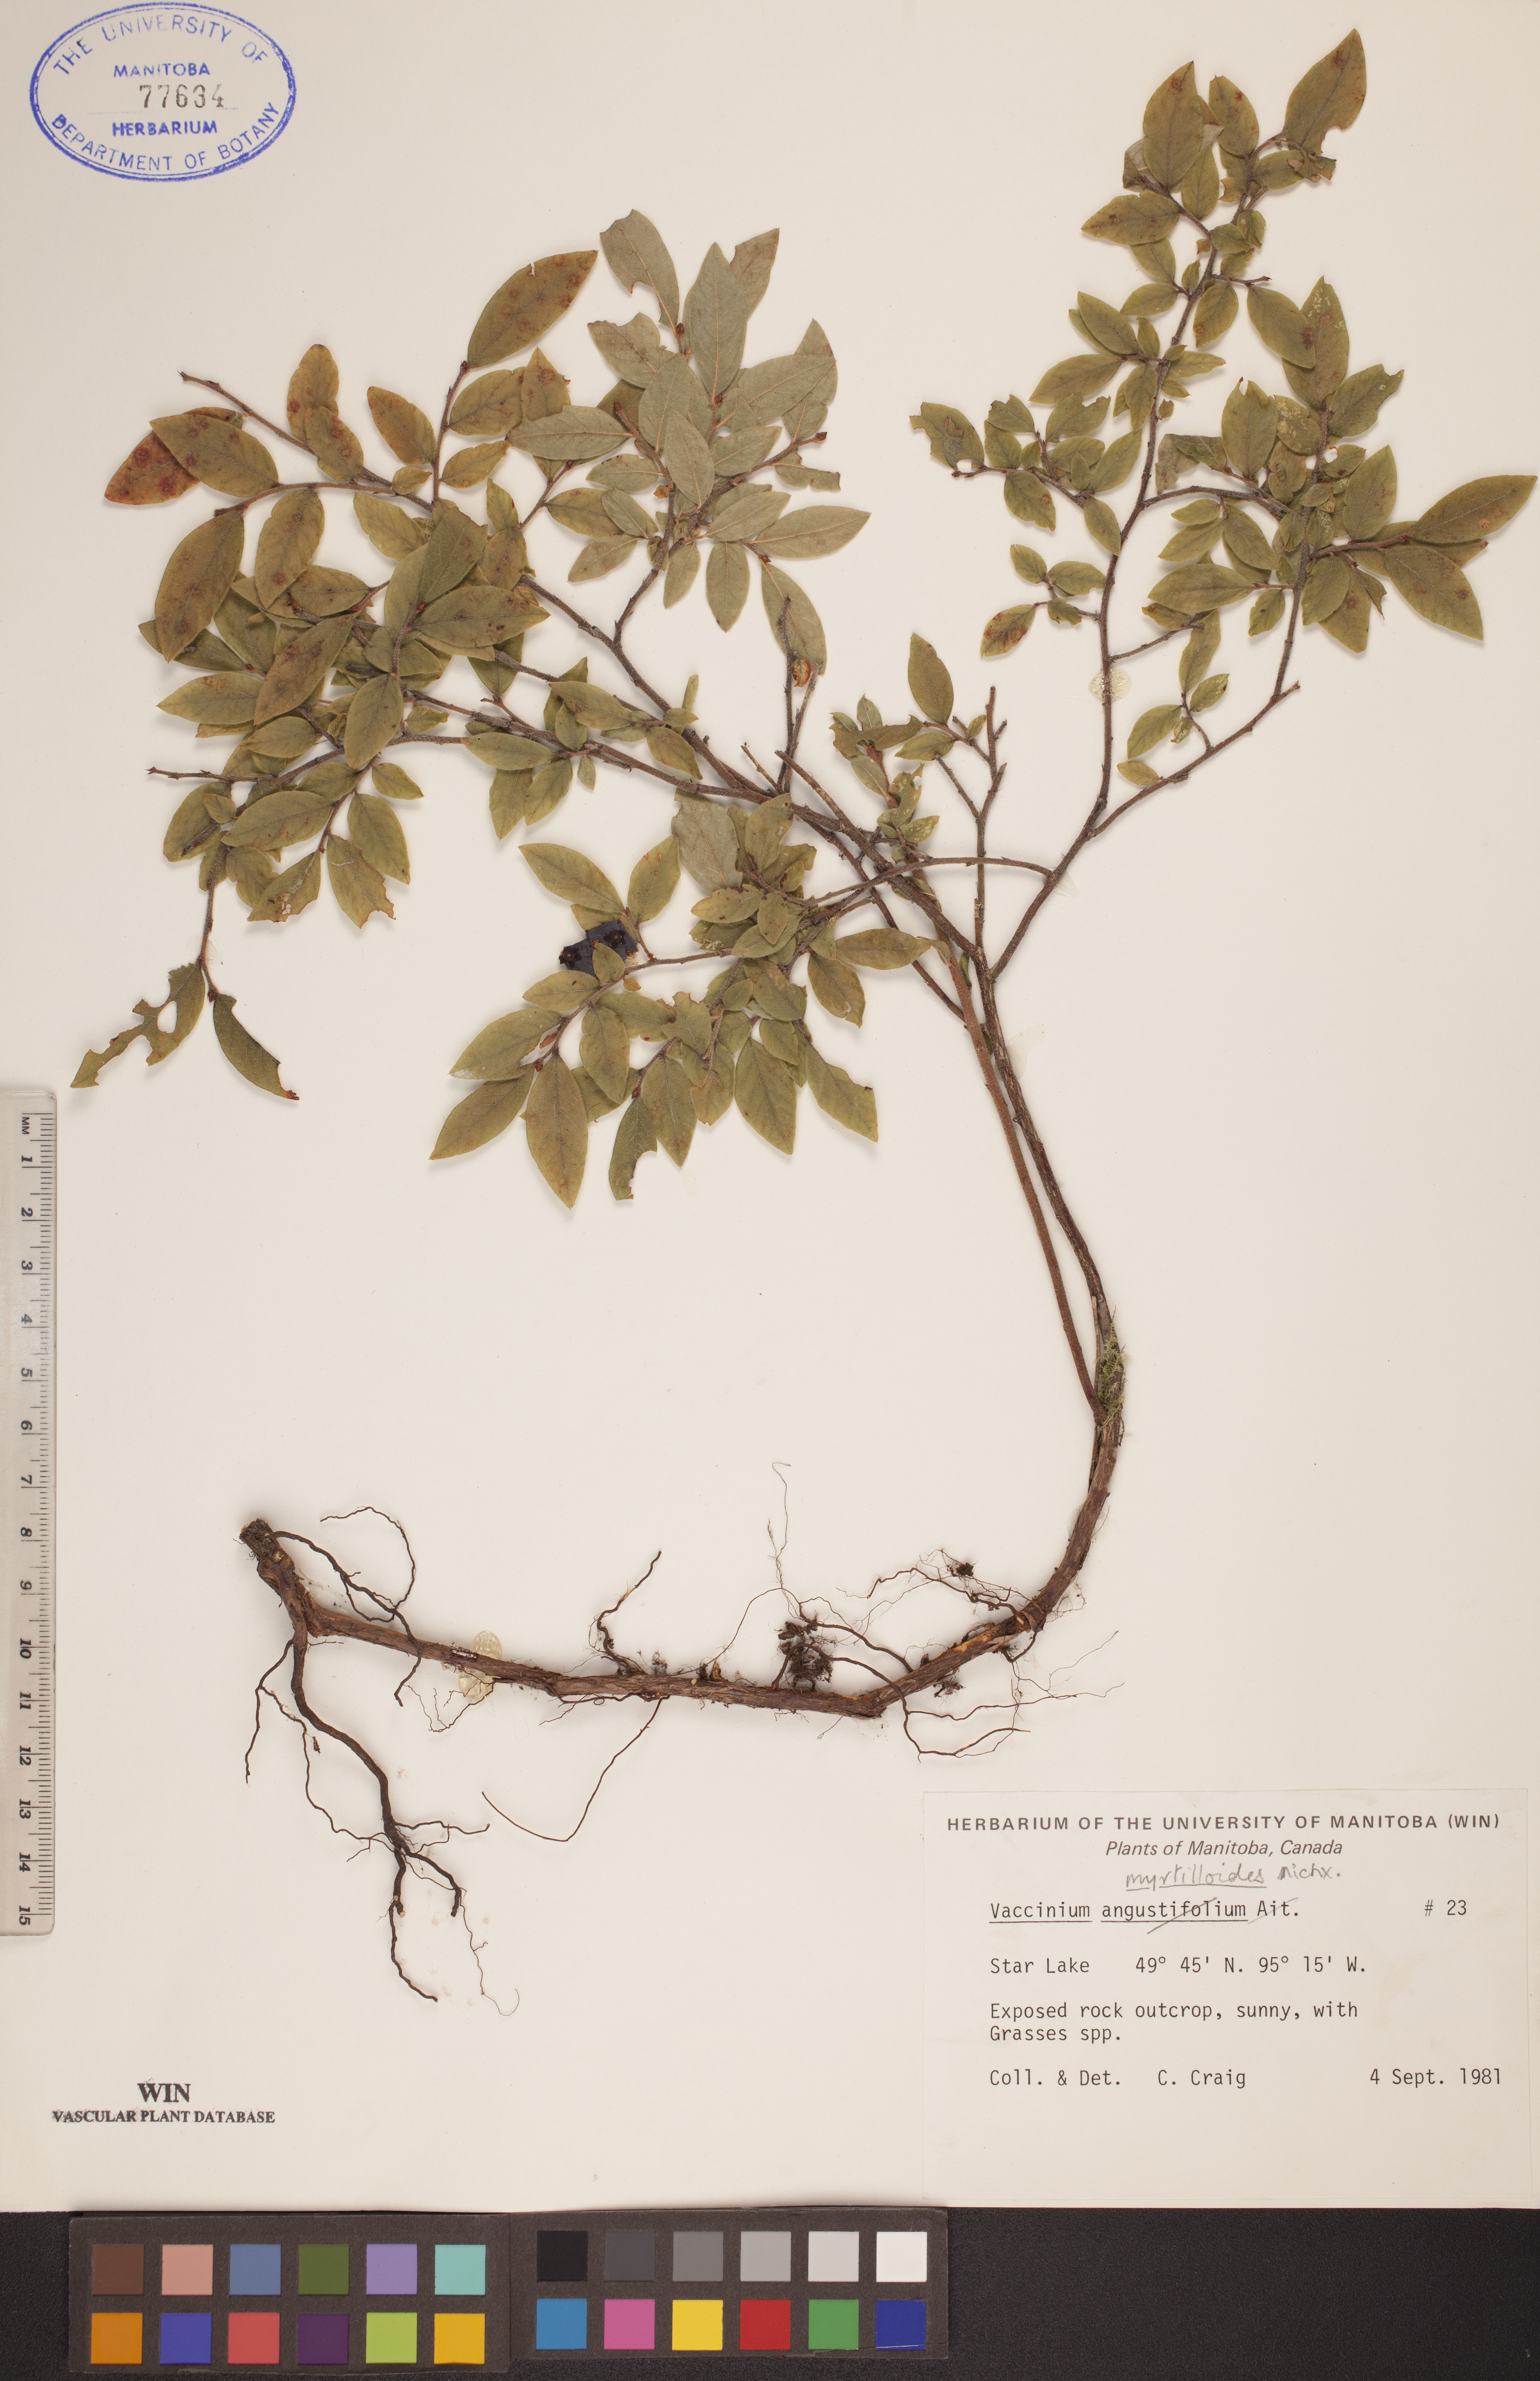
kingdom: Plantae
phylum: Tracheophyta
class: Magnoliopsida
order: Ericales
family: Ericaceae
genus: Vaccinium
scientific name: Vaccinium myrtilloides
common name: Canada blueberry
